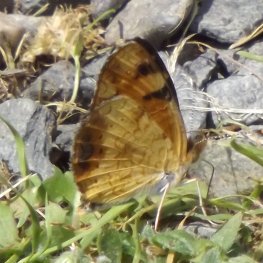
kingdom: Animalia
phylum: Arthropoda
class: Insecta
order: Lepidoptera
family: Nymphalidae
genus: Phyciodes
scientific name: Phyciodes tharos
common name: Northern Crescent
